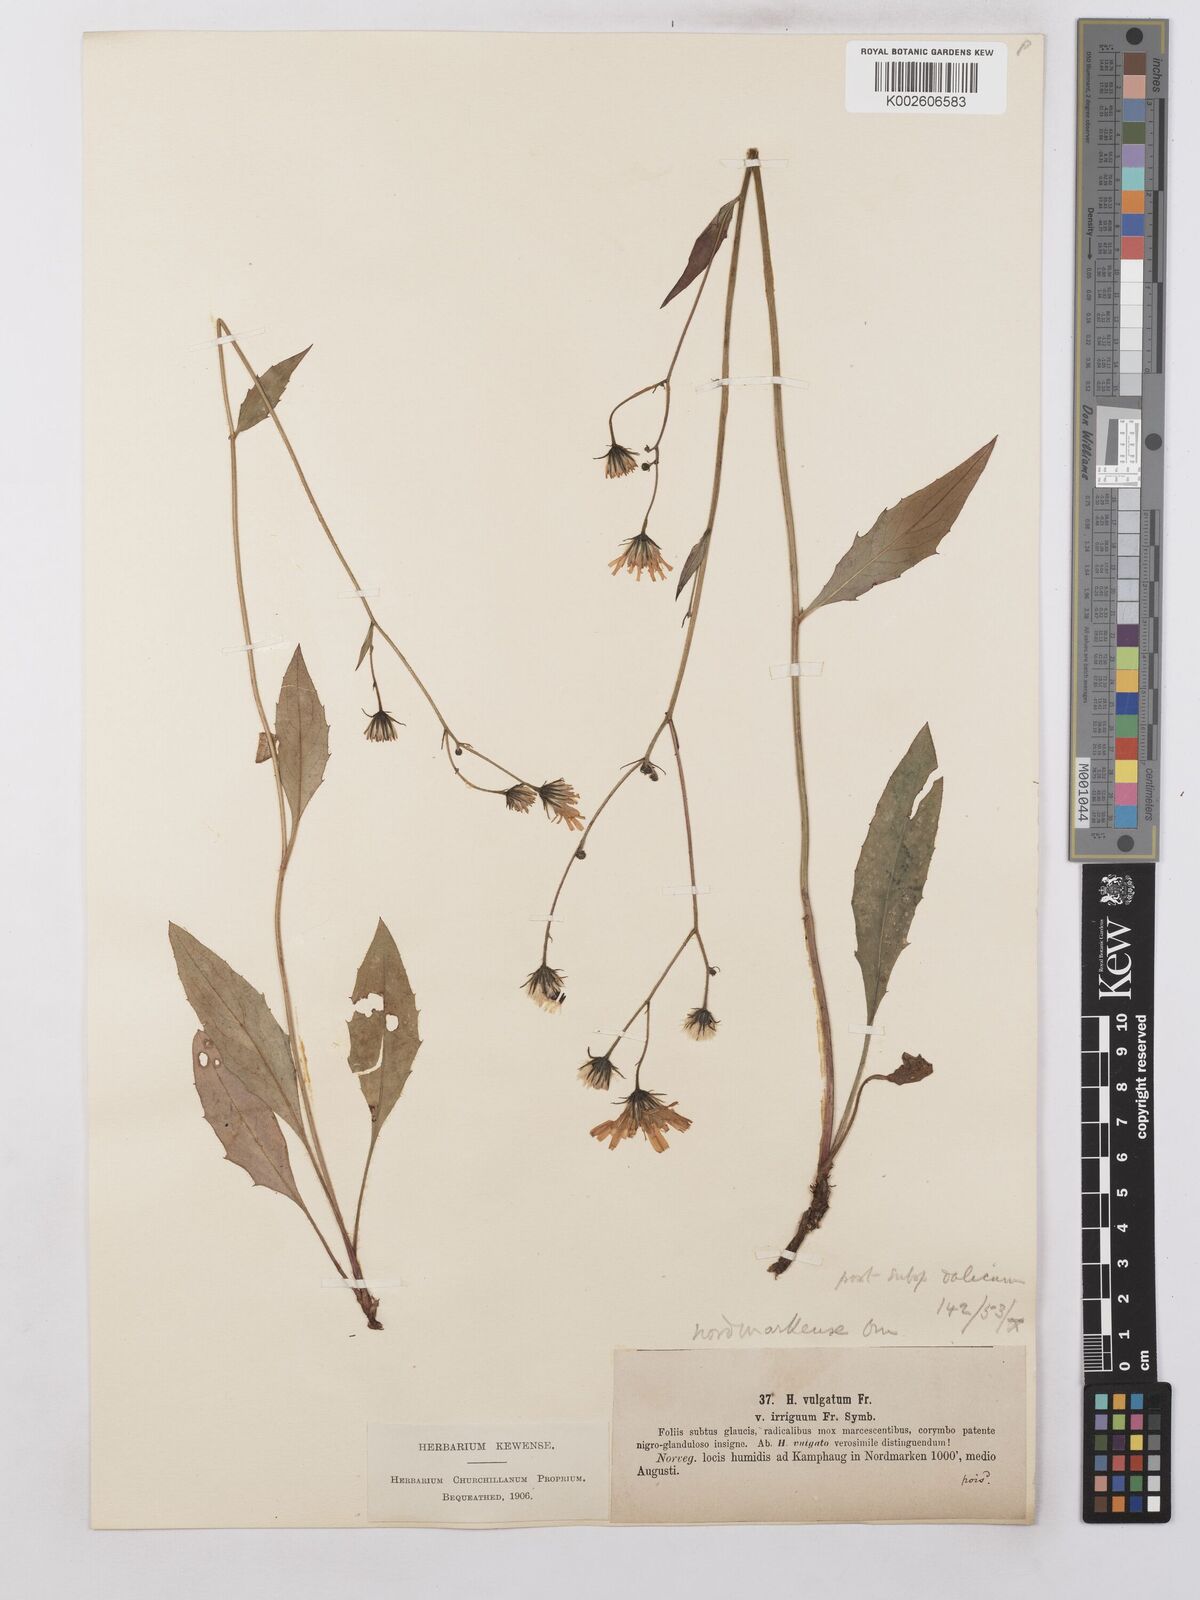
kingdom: Plantae
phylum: Tracheophyta
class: Magnoliopsida
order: Asterales
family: Asteraceae
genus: Hieracium
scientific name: Hieracium lachenalii
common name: Common hawkweed
